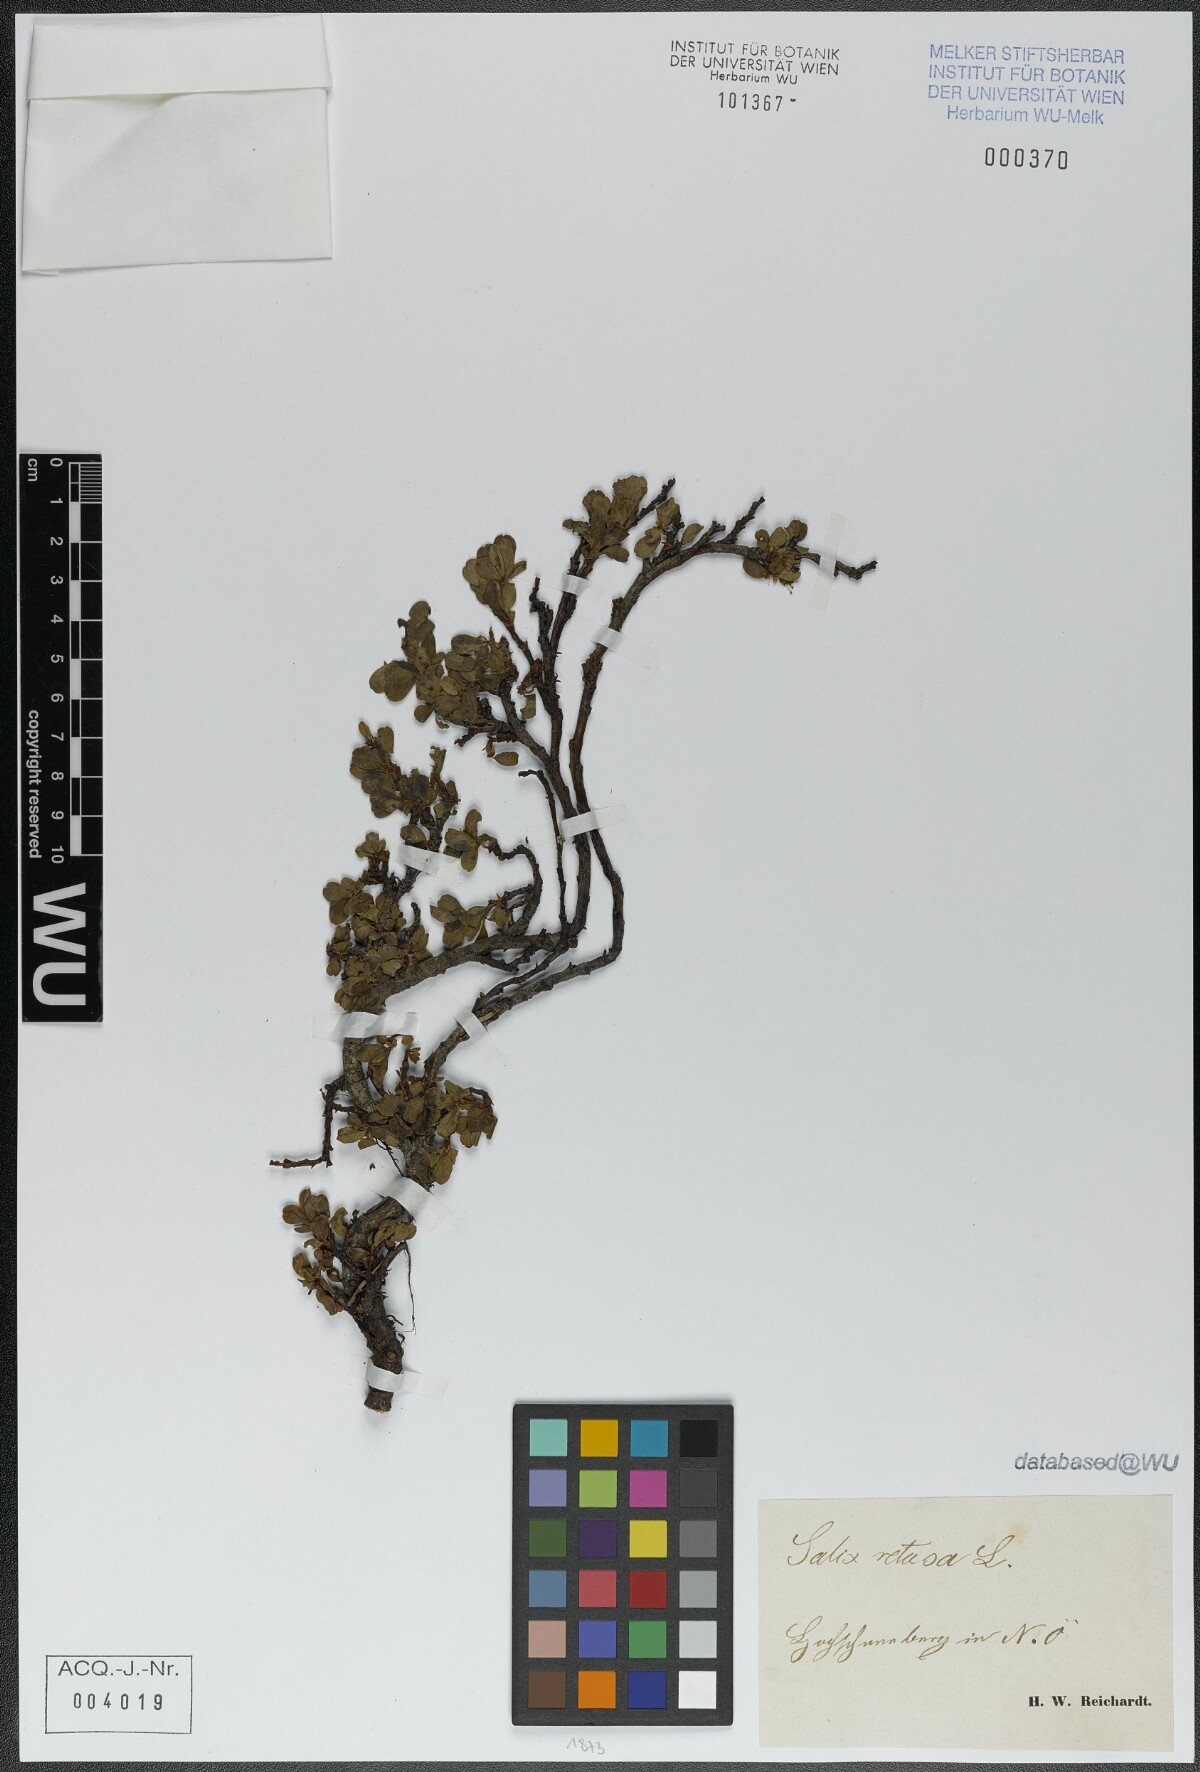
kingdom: Plantae
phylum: Tracheophyta
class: Magnoliopsida
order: Malpighiales
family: Salicaceae
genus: Salix
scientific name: Salix retusa
